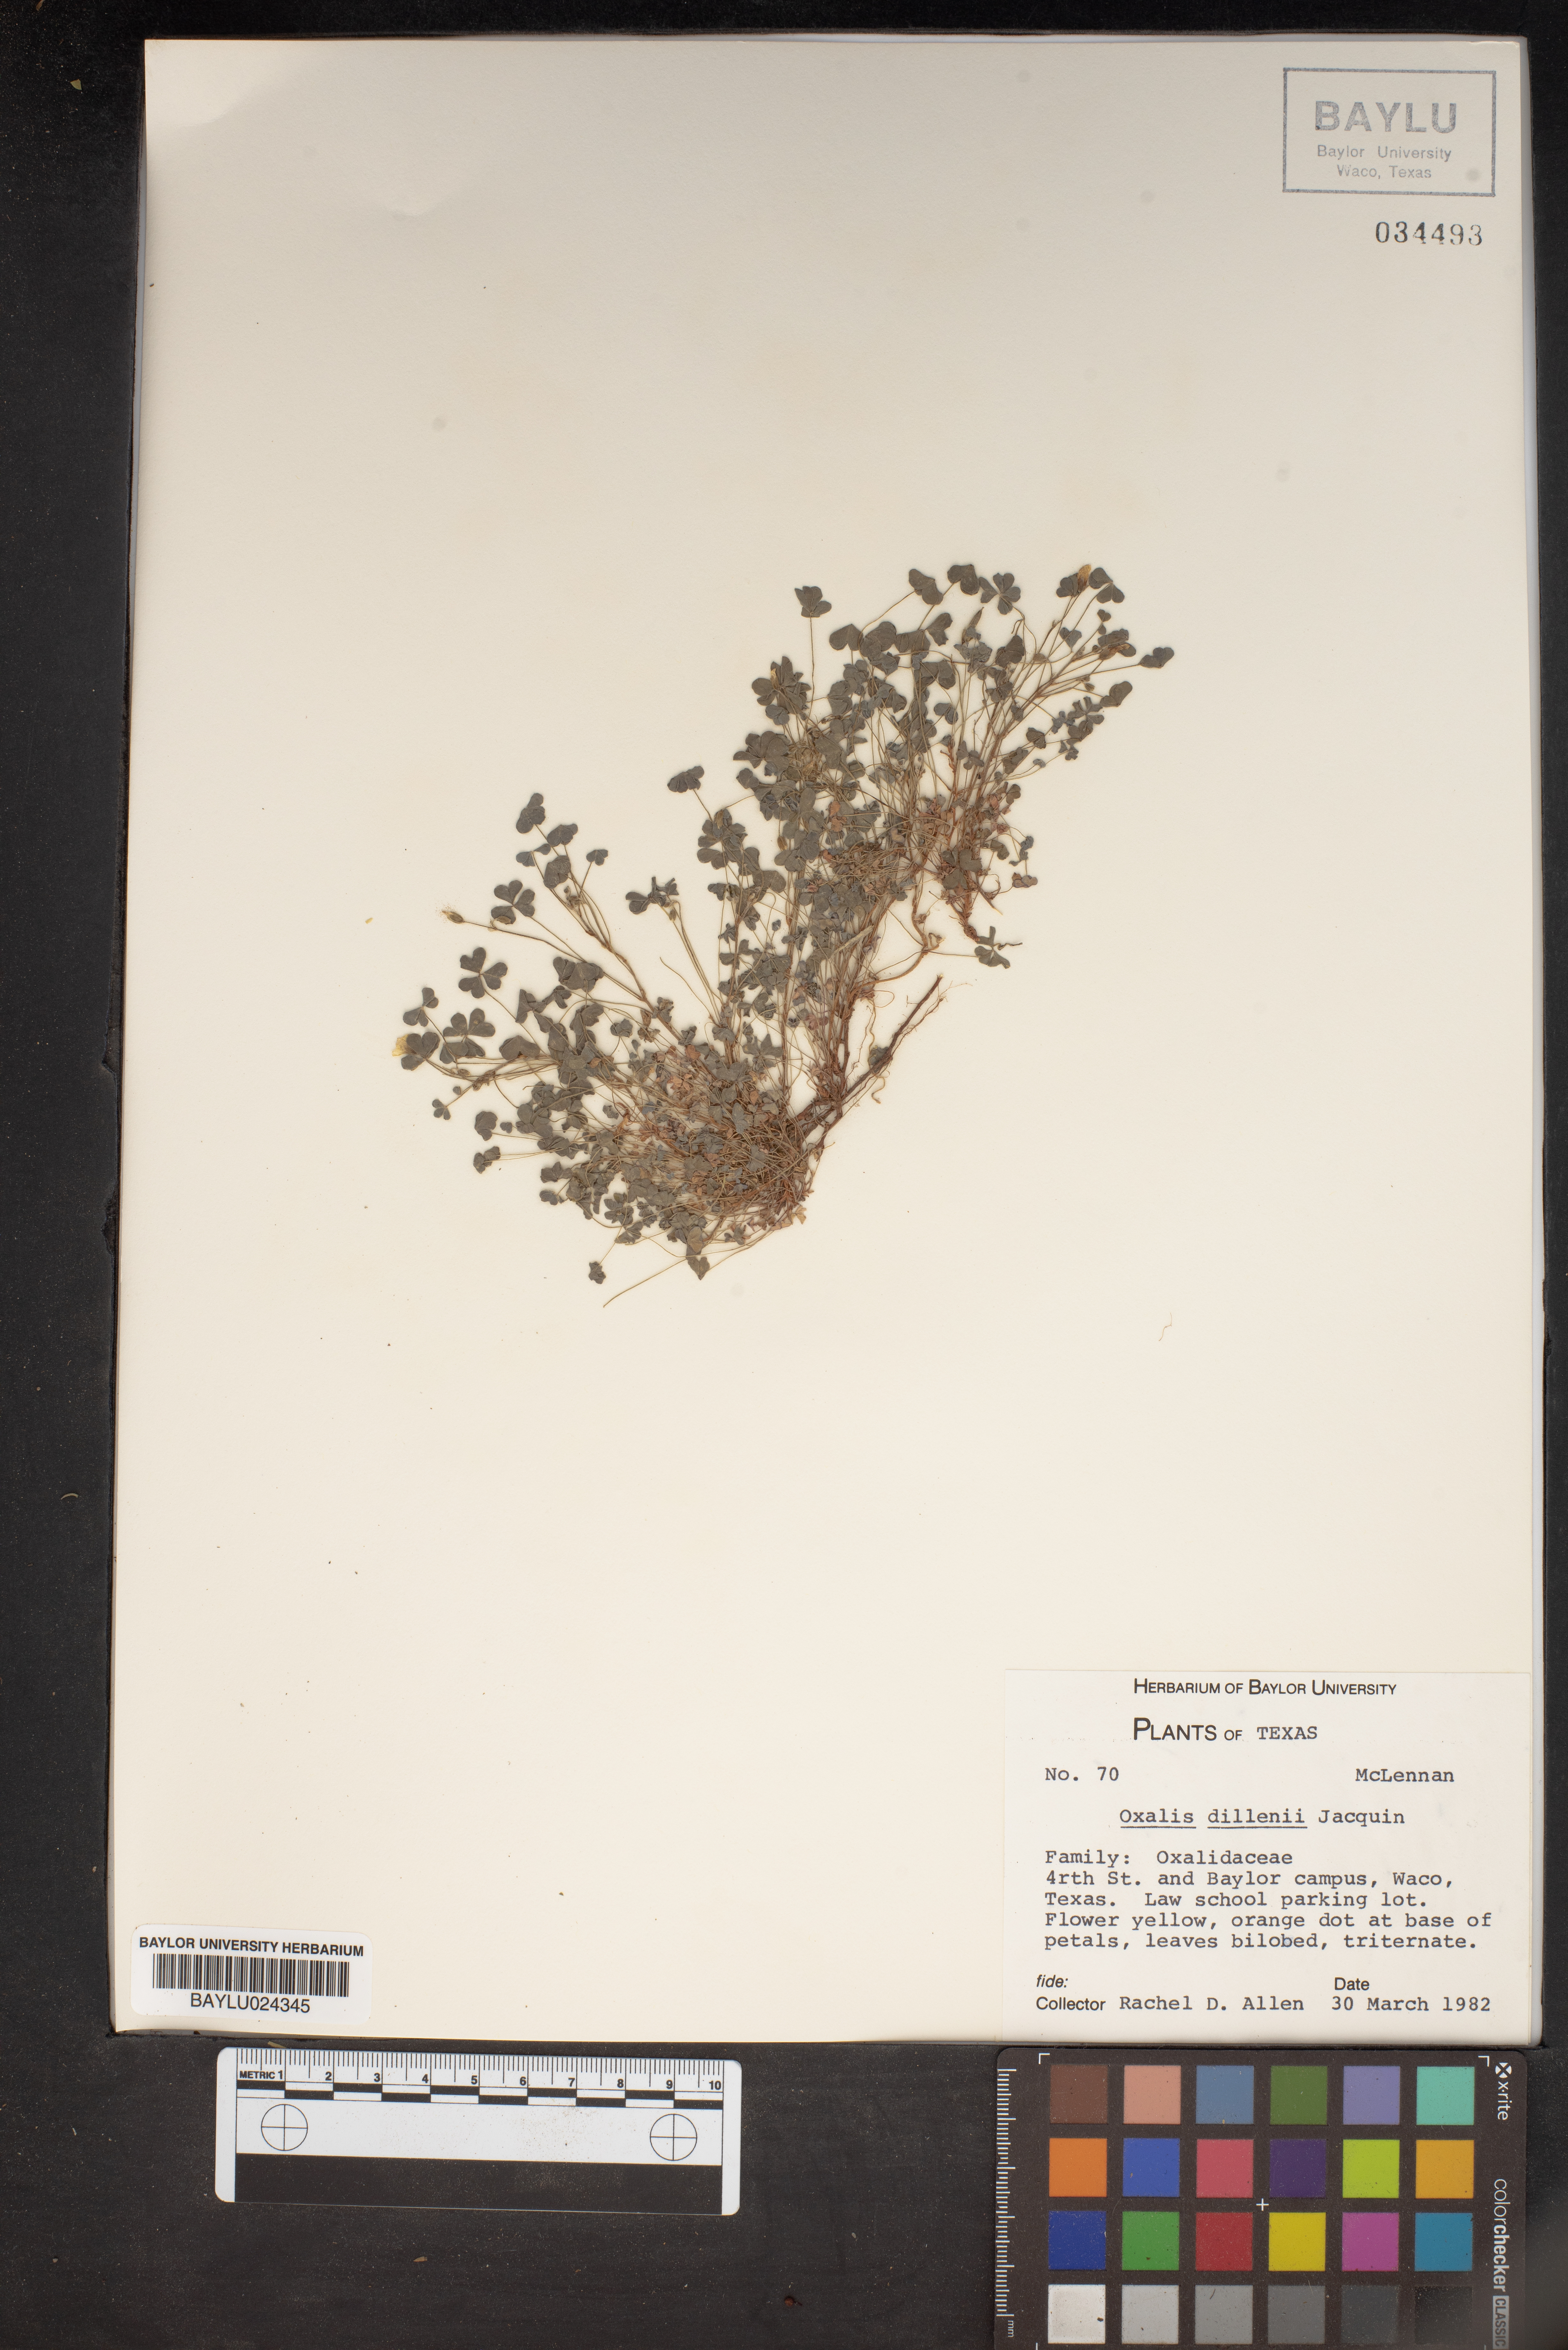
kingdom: Plantae
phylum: Tracheophyta
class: Magnoliopsida
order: Oxalidales
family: Oxalidaceae
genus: Oxalis
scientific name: Oxalis dillenii
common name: Sussex yellow-sorrel
